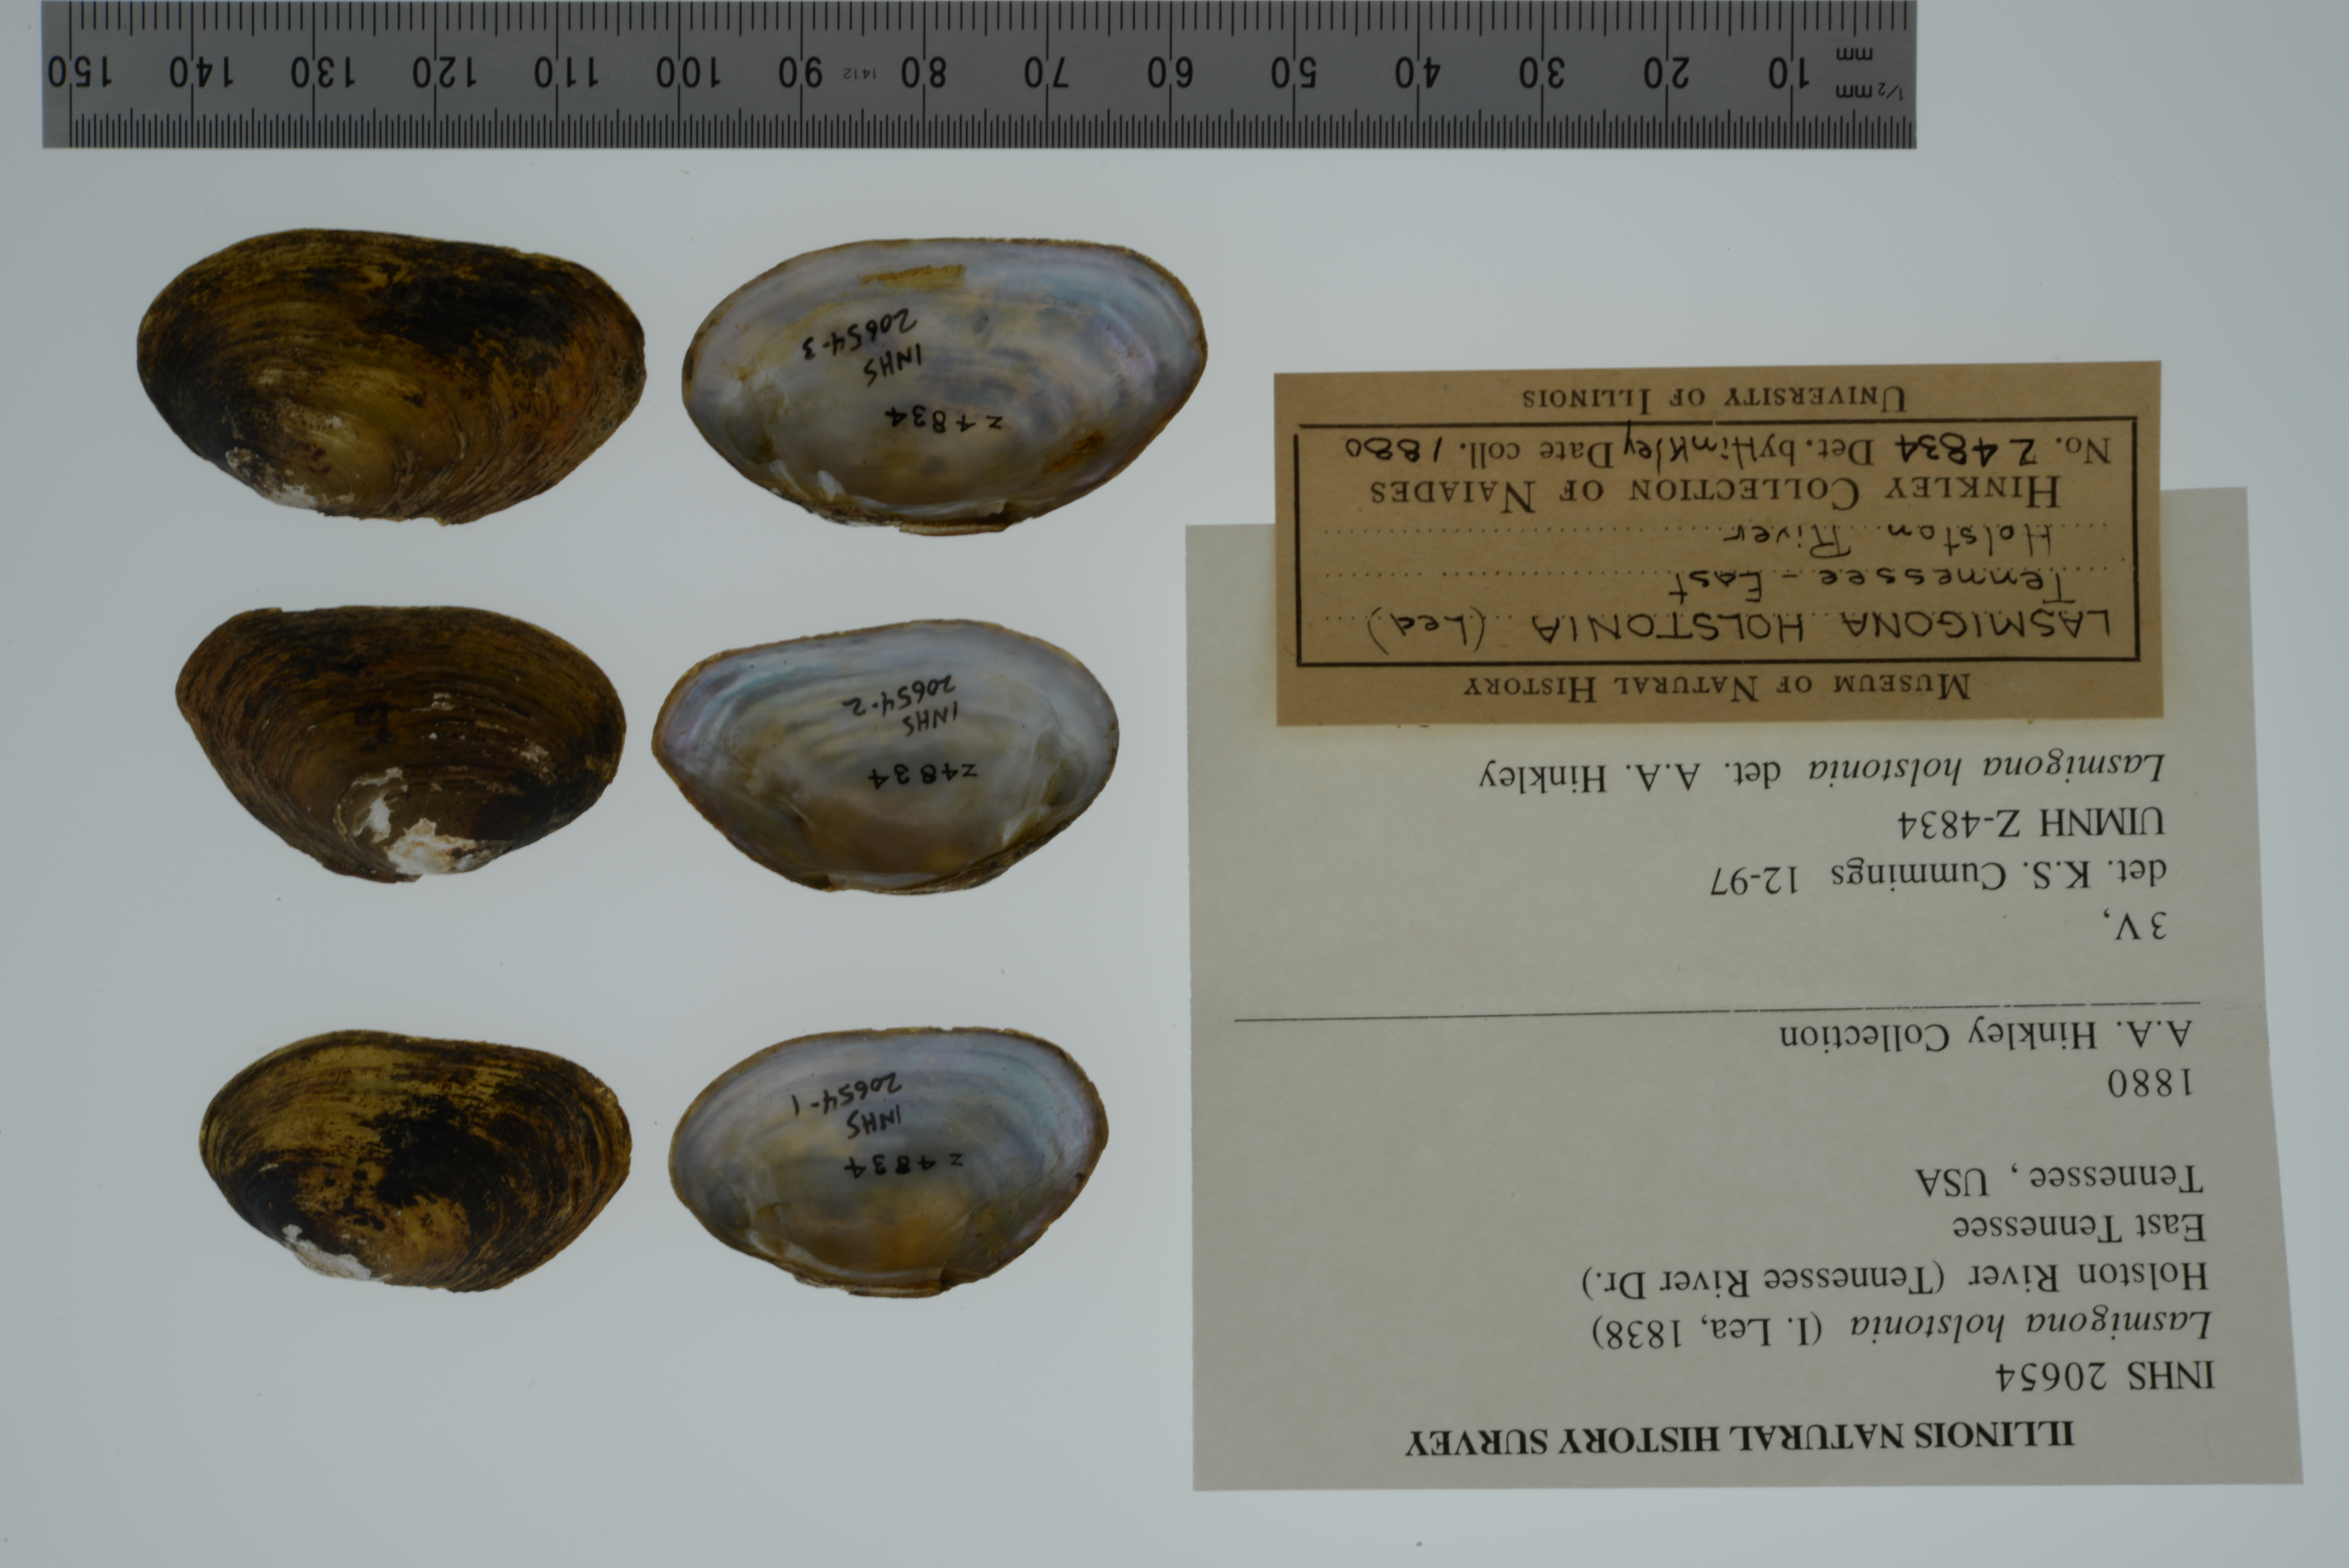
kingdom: Animalia
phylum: Mollusca
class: Bivalvia
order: Unionida
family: Unionidae
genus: Lasmigona
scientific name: Lasmigona holstonia
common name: Tennessee heelsplitter
